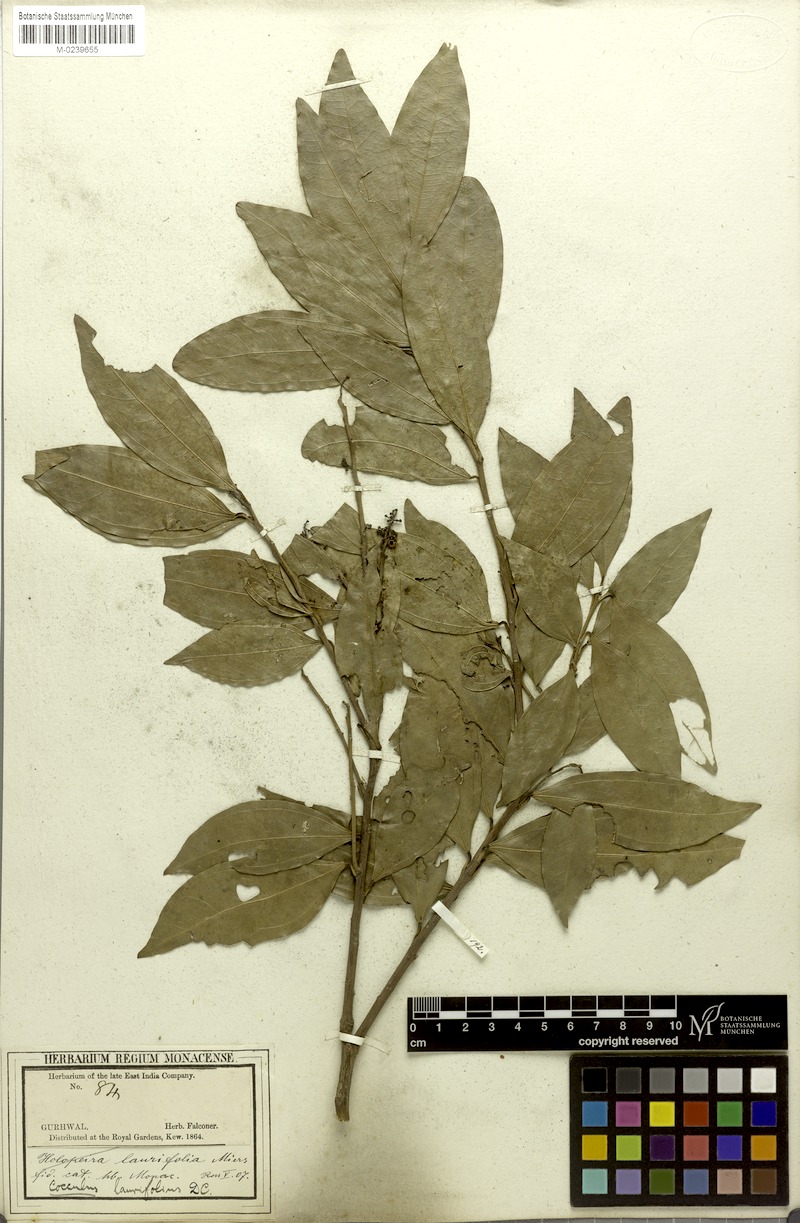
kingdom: Plantae
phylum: Tracheophyta
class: Magnoliopsida
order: Ranunculales
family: Menispermaceae
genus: Cocculus
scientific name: Cocculus laurifolius
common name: Laurel-leaf snailseed
